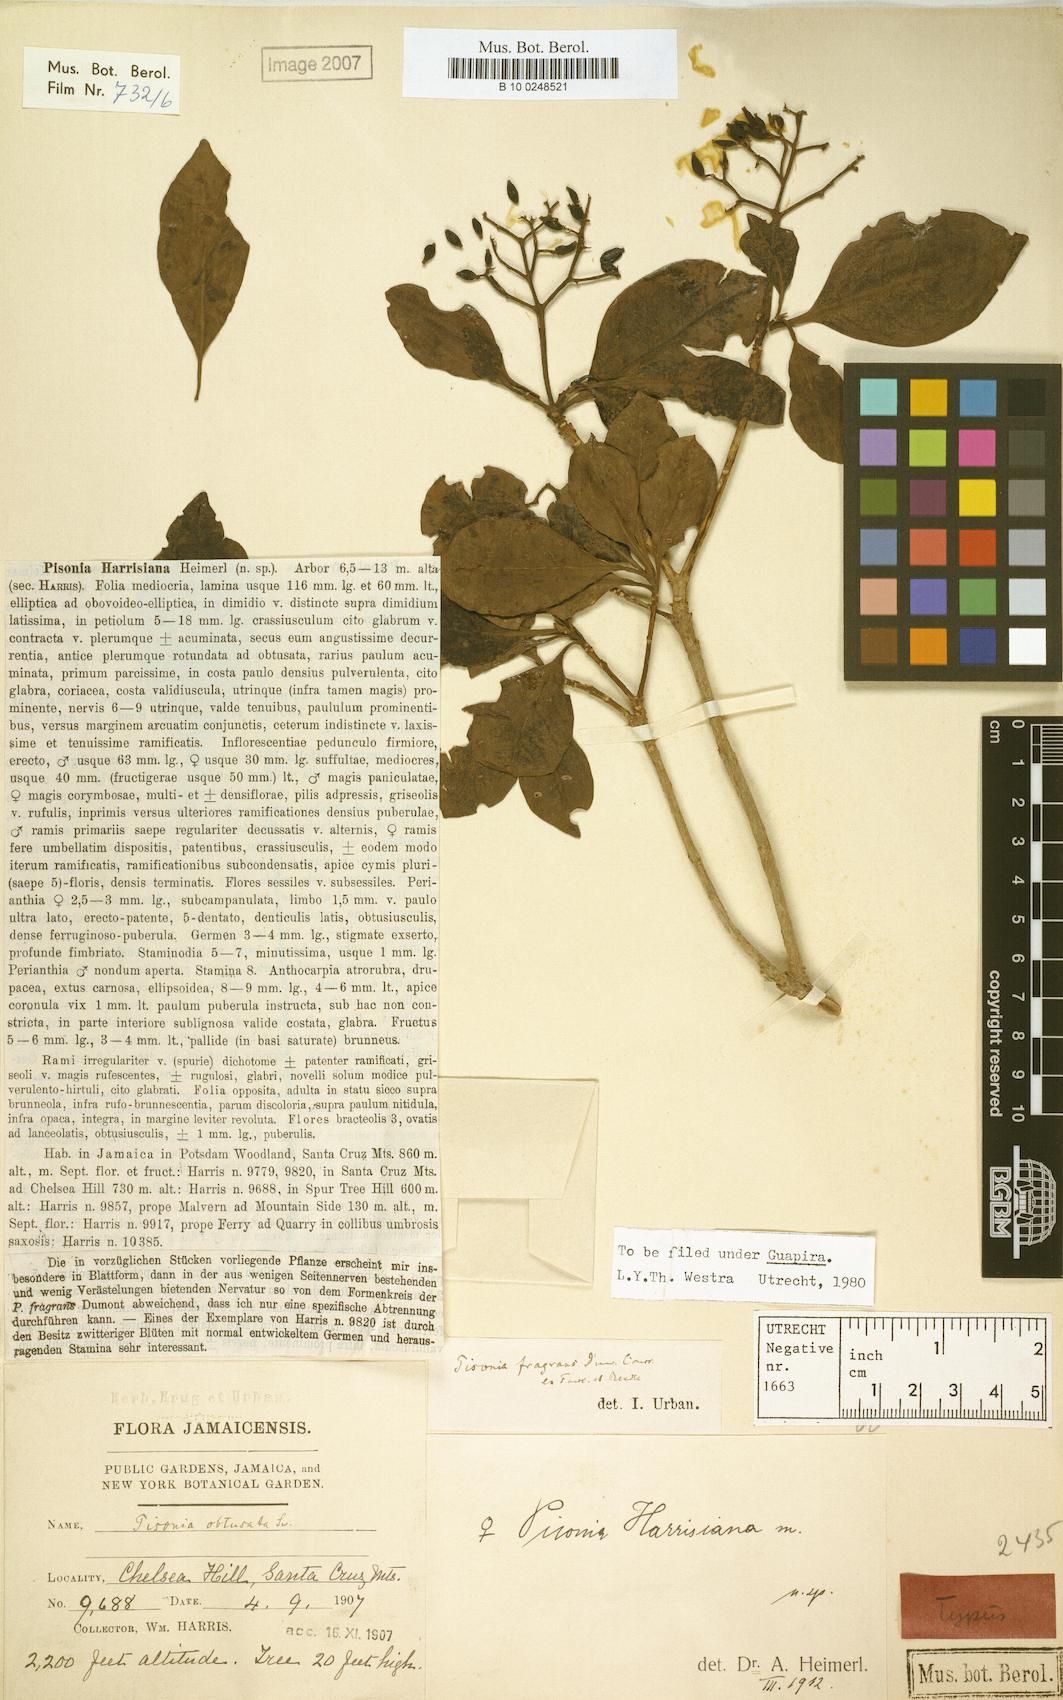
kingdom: Plantae
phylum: Tracheophyta
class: Magnoliopsida
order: Caryophyllales
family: Nyctaginaceae
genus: Guapira
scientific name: Guapira fragrans
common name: Black loblolly tree
